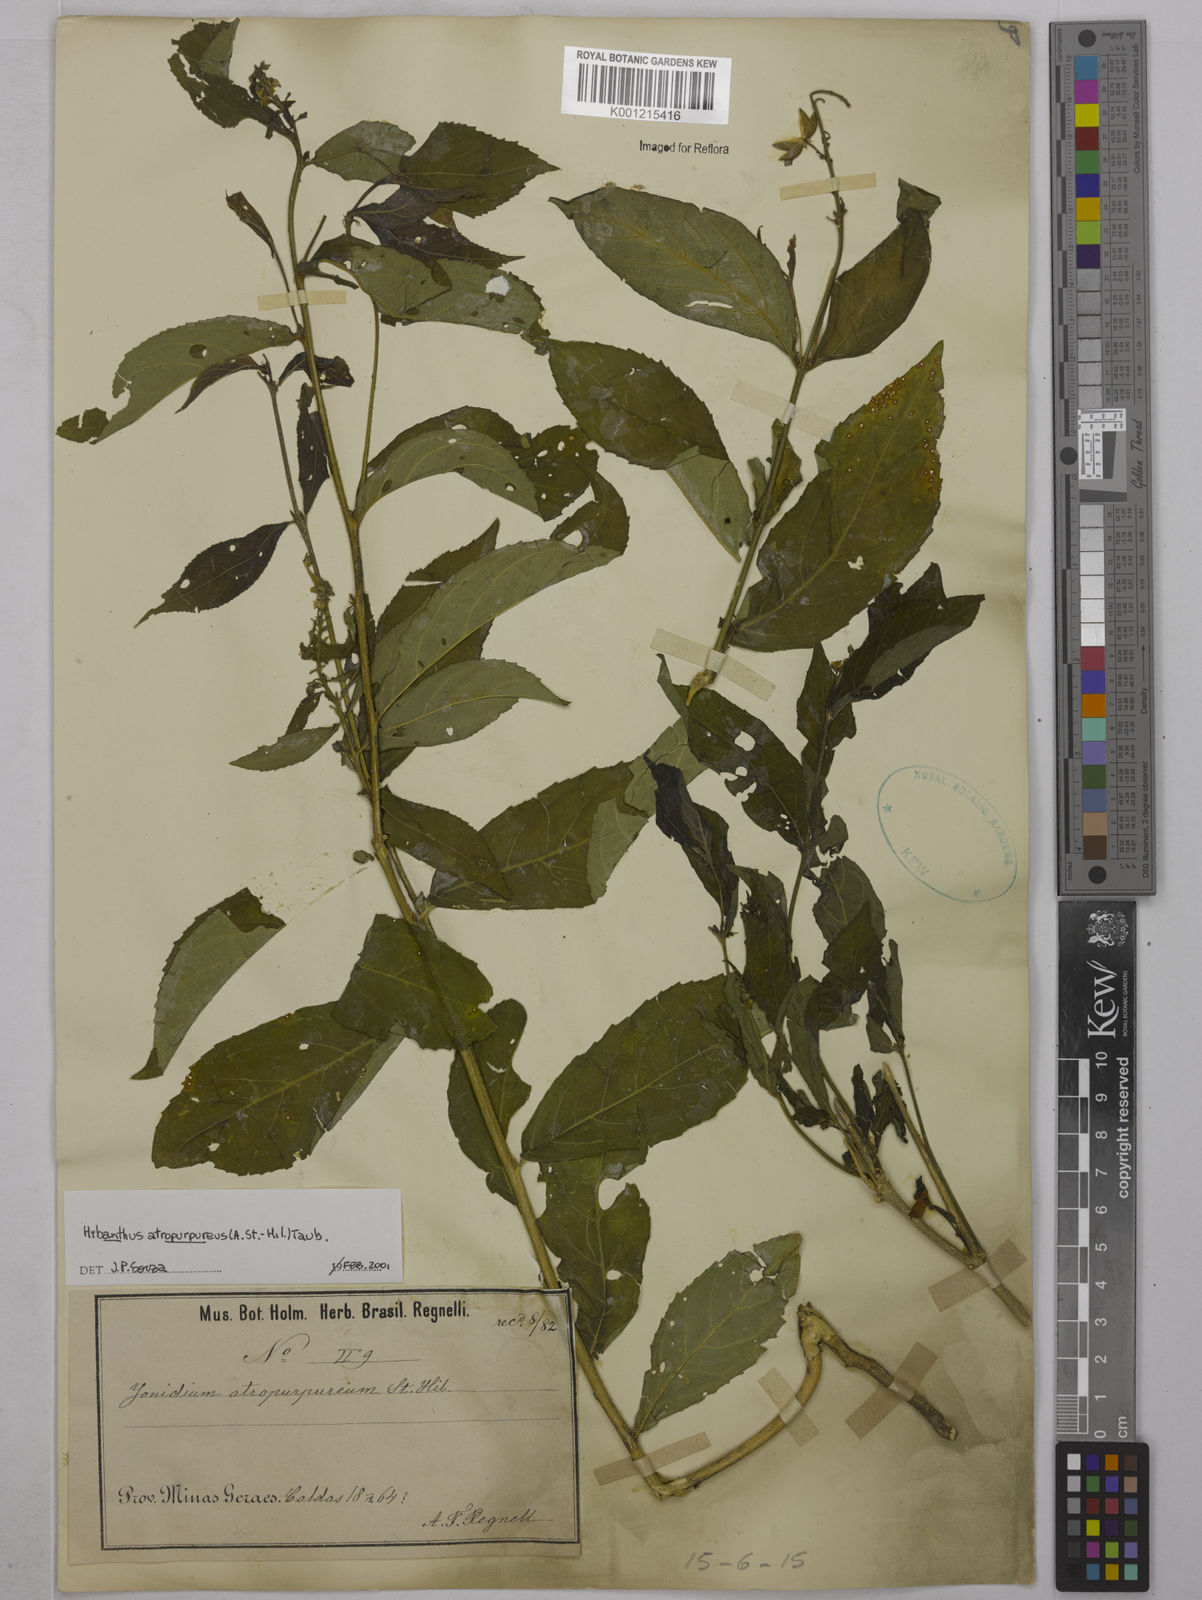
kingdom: Plantae
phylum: Tracheophyta
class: Magnoliopsida
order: Malpighiales
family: Violaceae
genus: Pombalia
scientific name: Pombalia atropurpurea
